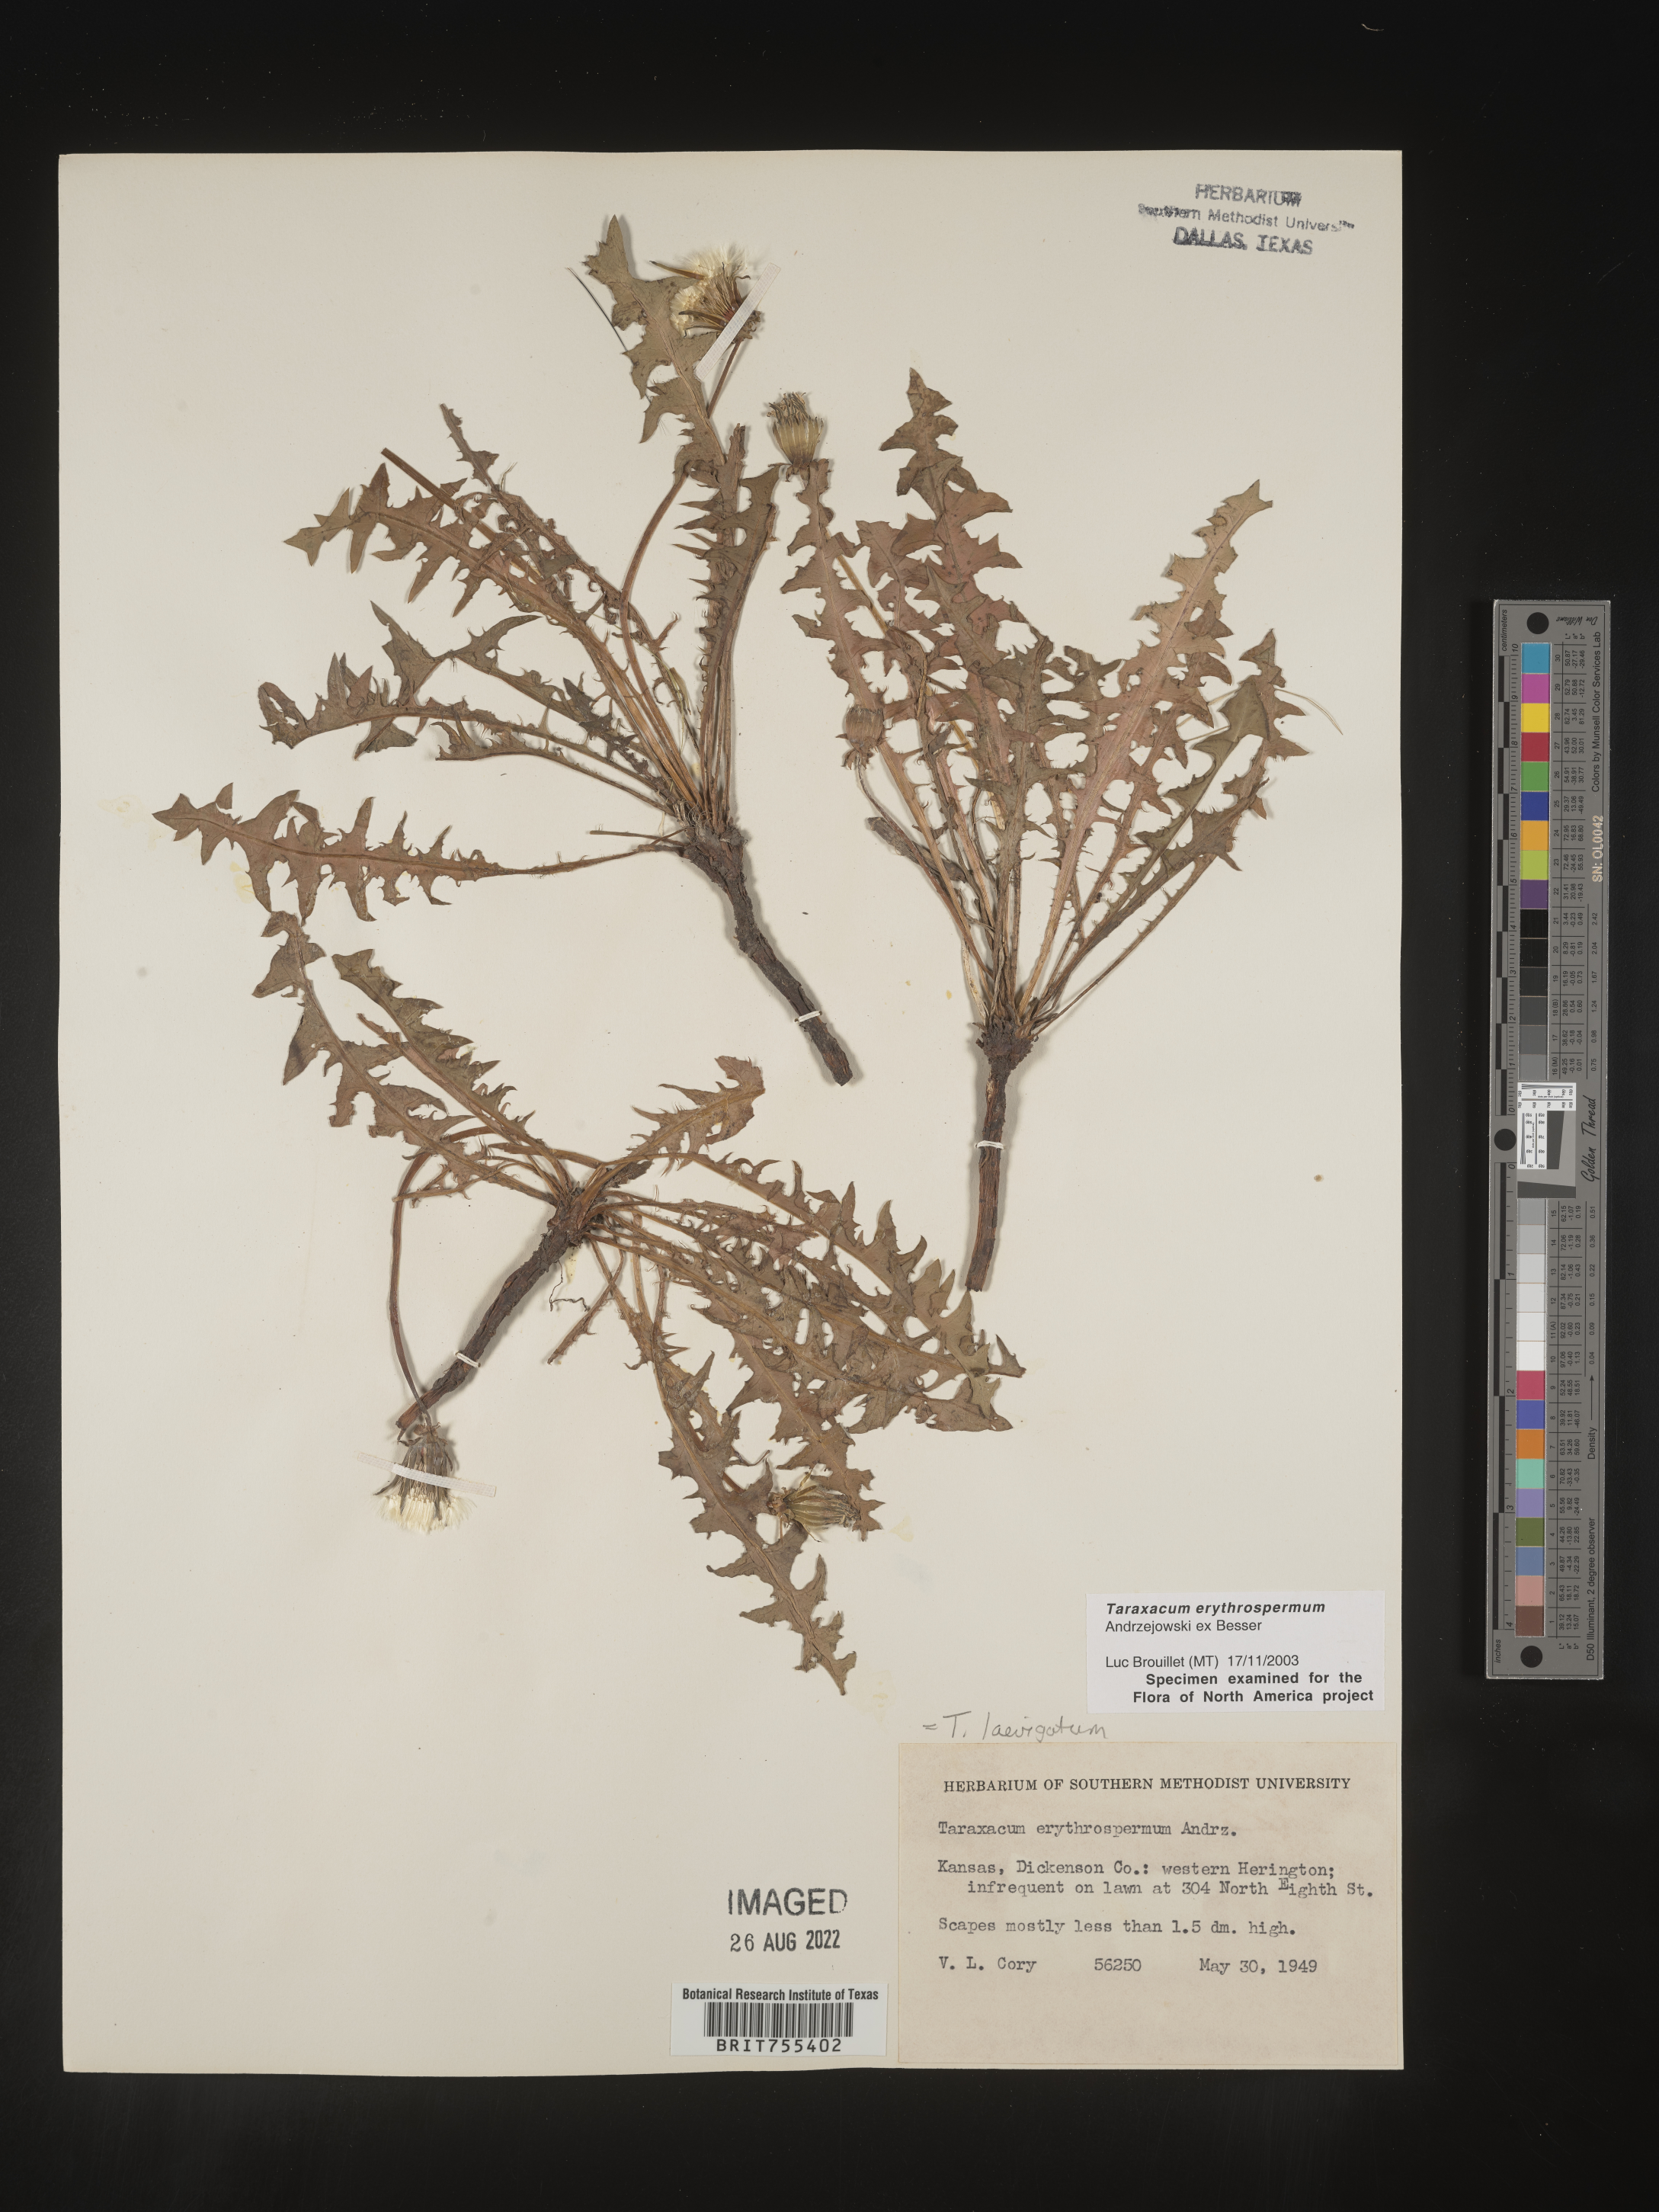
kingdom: Plantae
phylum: Tracheophyta
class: Magnoliopsida
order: Asterales
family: Asteraceae
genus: Taraxacum
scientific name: Taraxacum erythrospermum
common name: Rock dandelion
